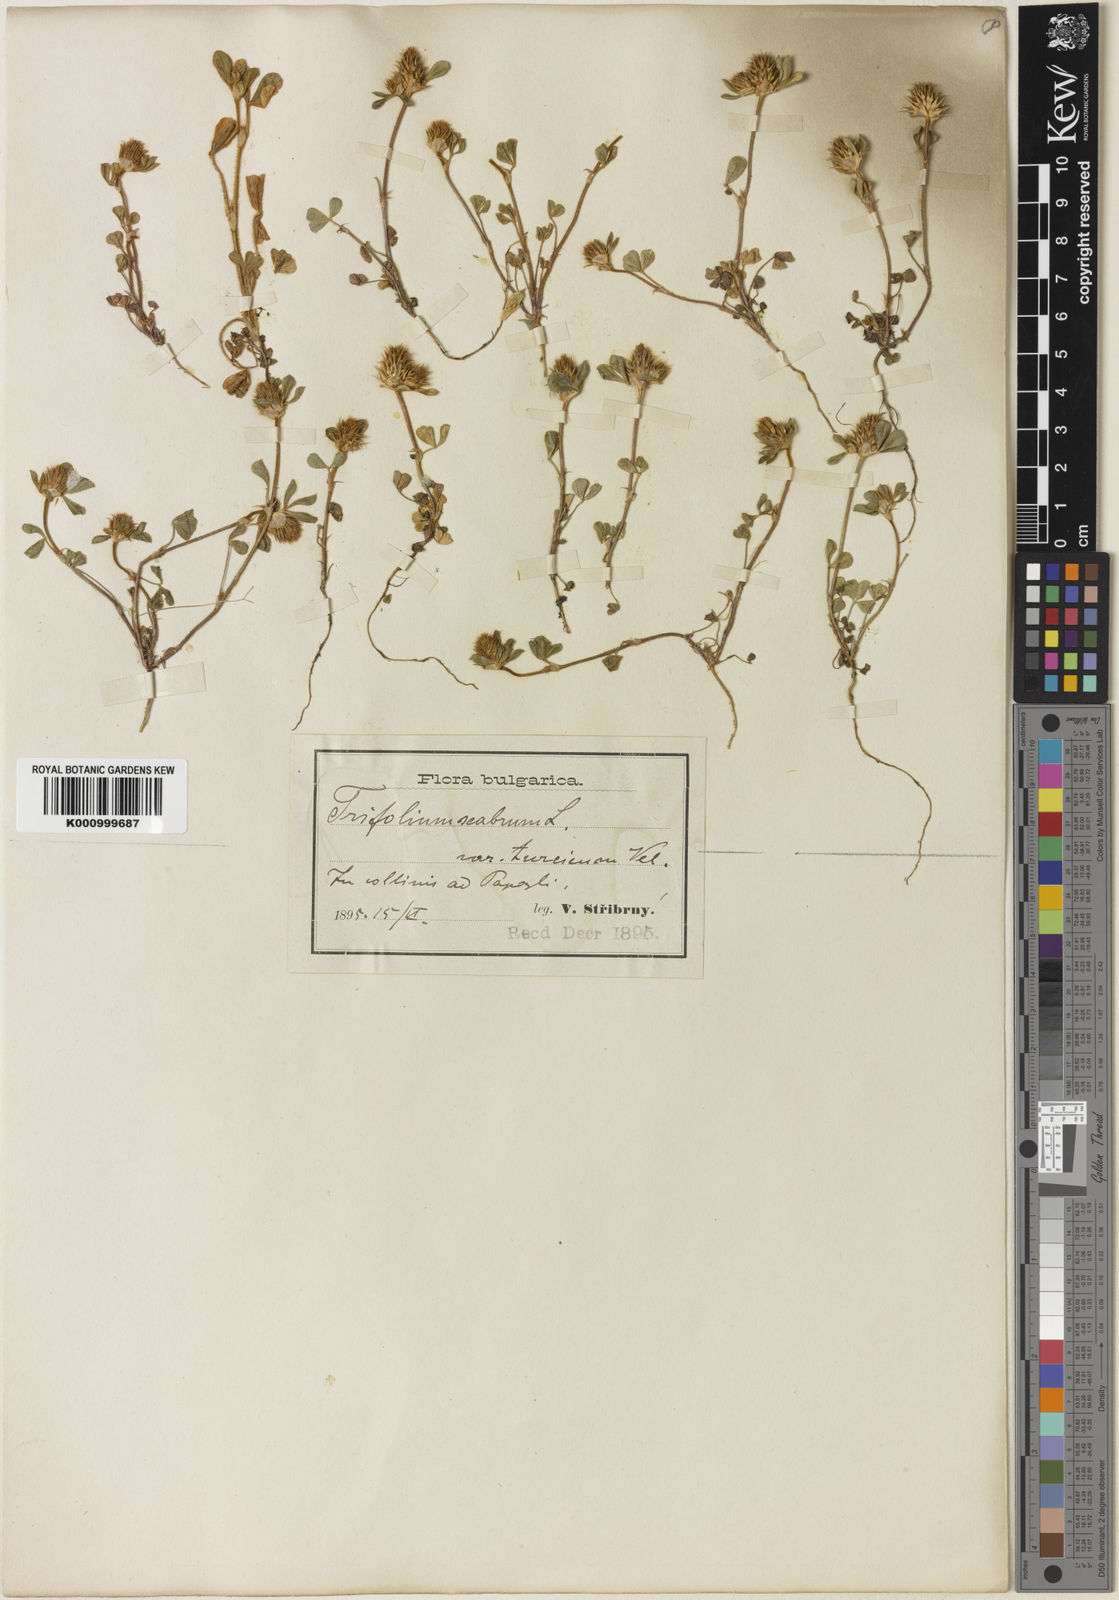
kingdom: Plantae
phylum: Tracheophyta
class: Magnoliopsida
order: Fabales
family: Fabaceae
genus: Trifolium
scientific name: Trifolium constantinopolitanum
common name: Constantinople clover
